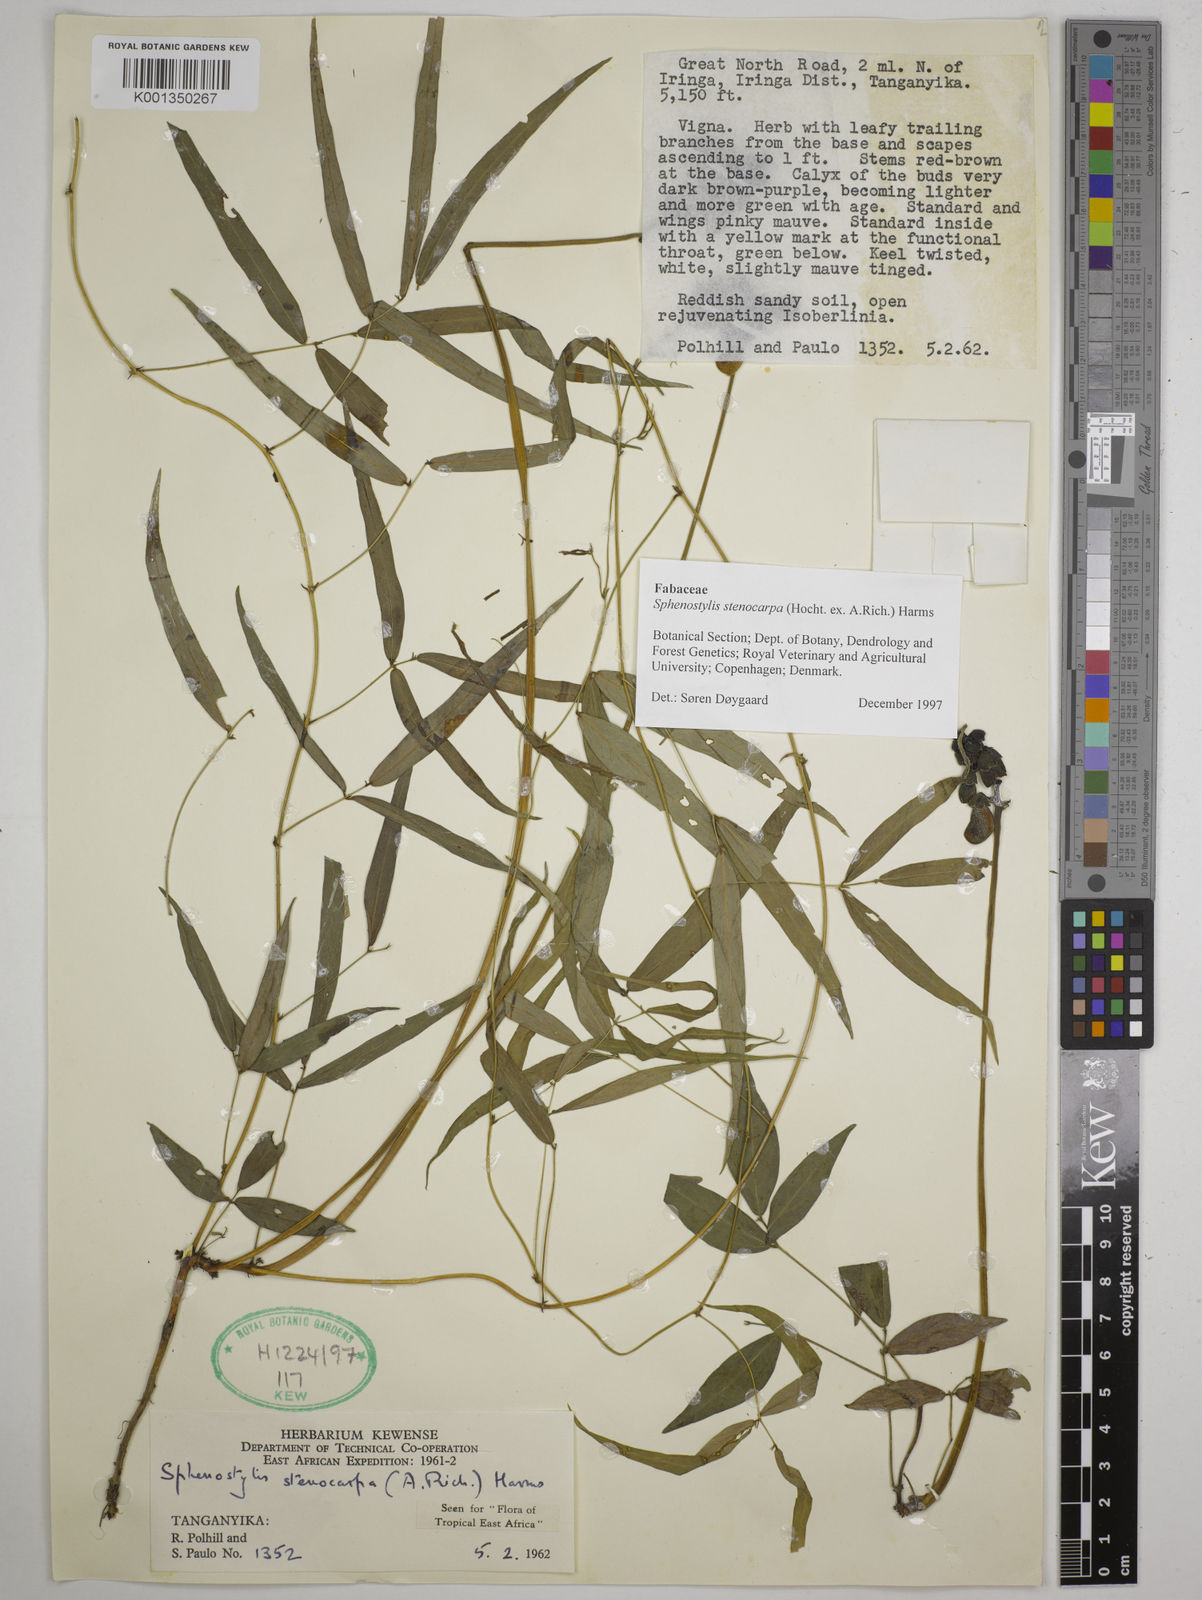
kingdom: Plantae
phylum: Tracheophyta
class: Magnoliopsida
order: Fabales
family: Fabaceae
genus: Sphenostylis
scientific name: Sphenostylis stenocarpa
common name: Yam-pea
